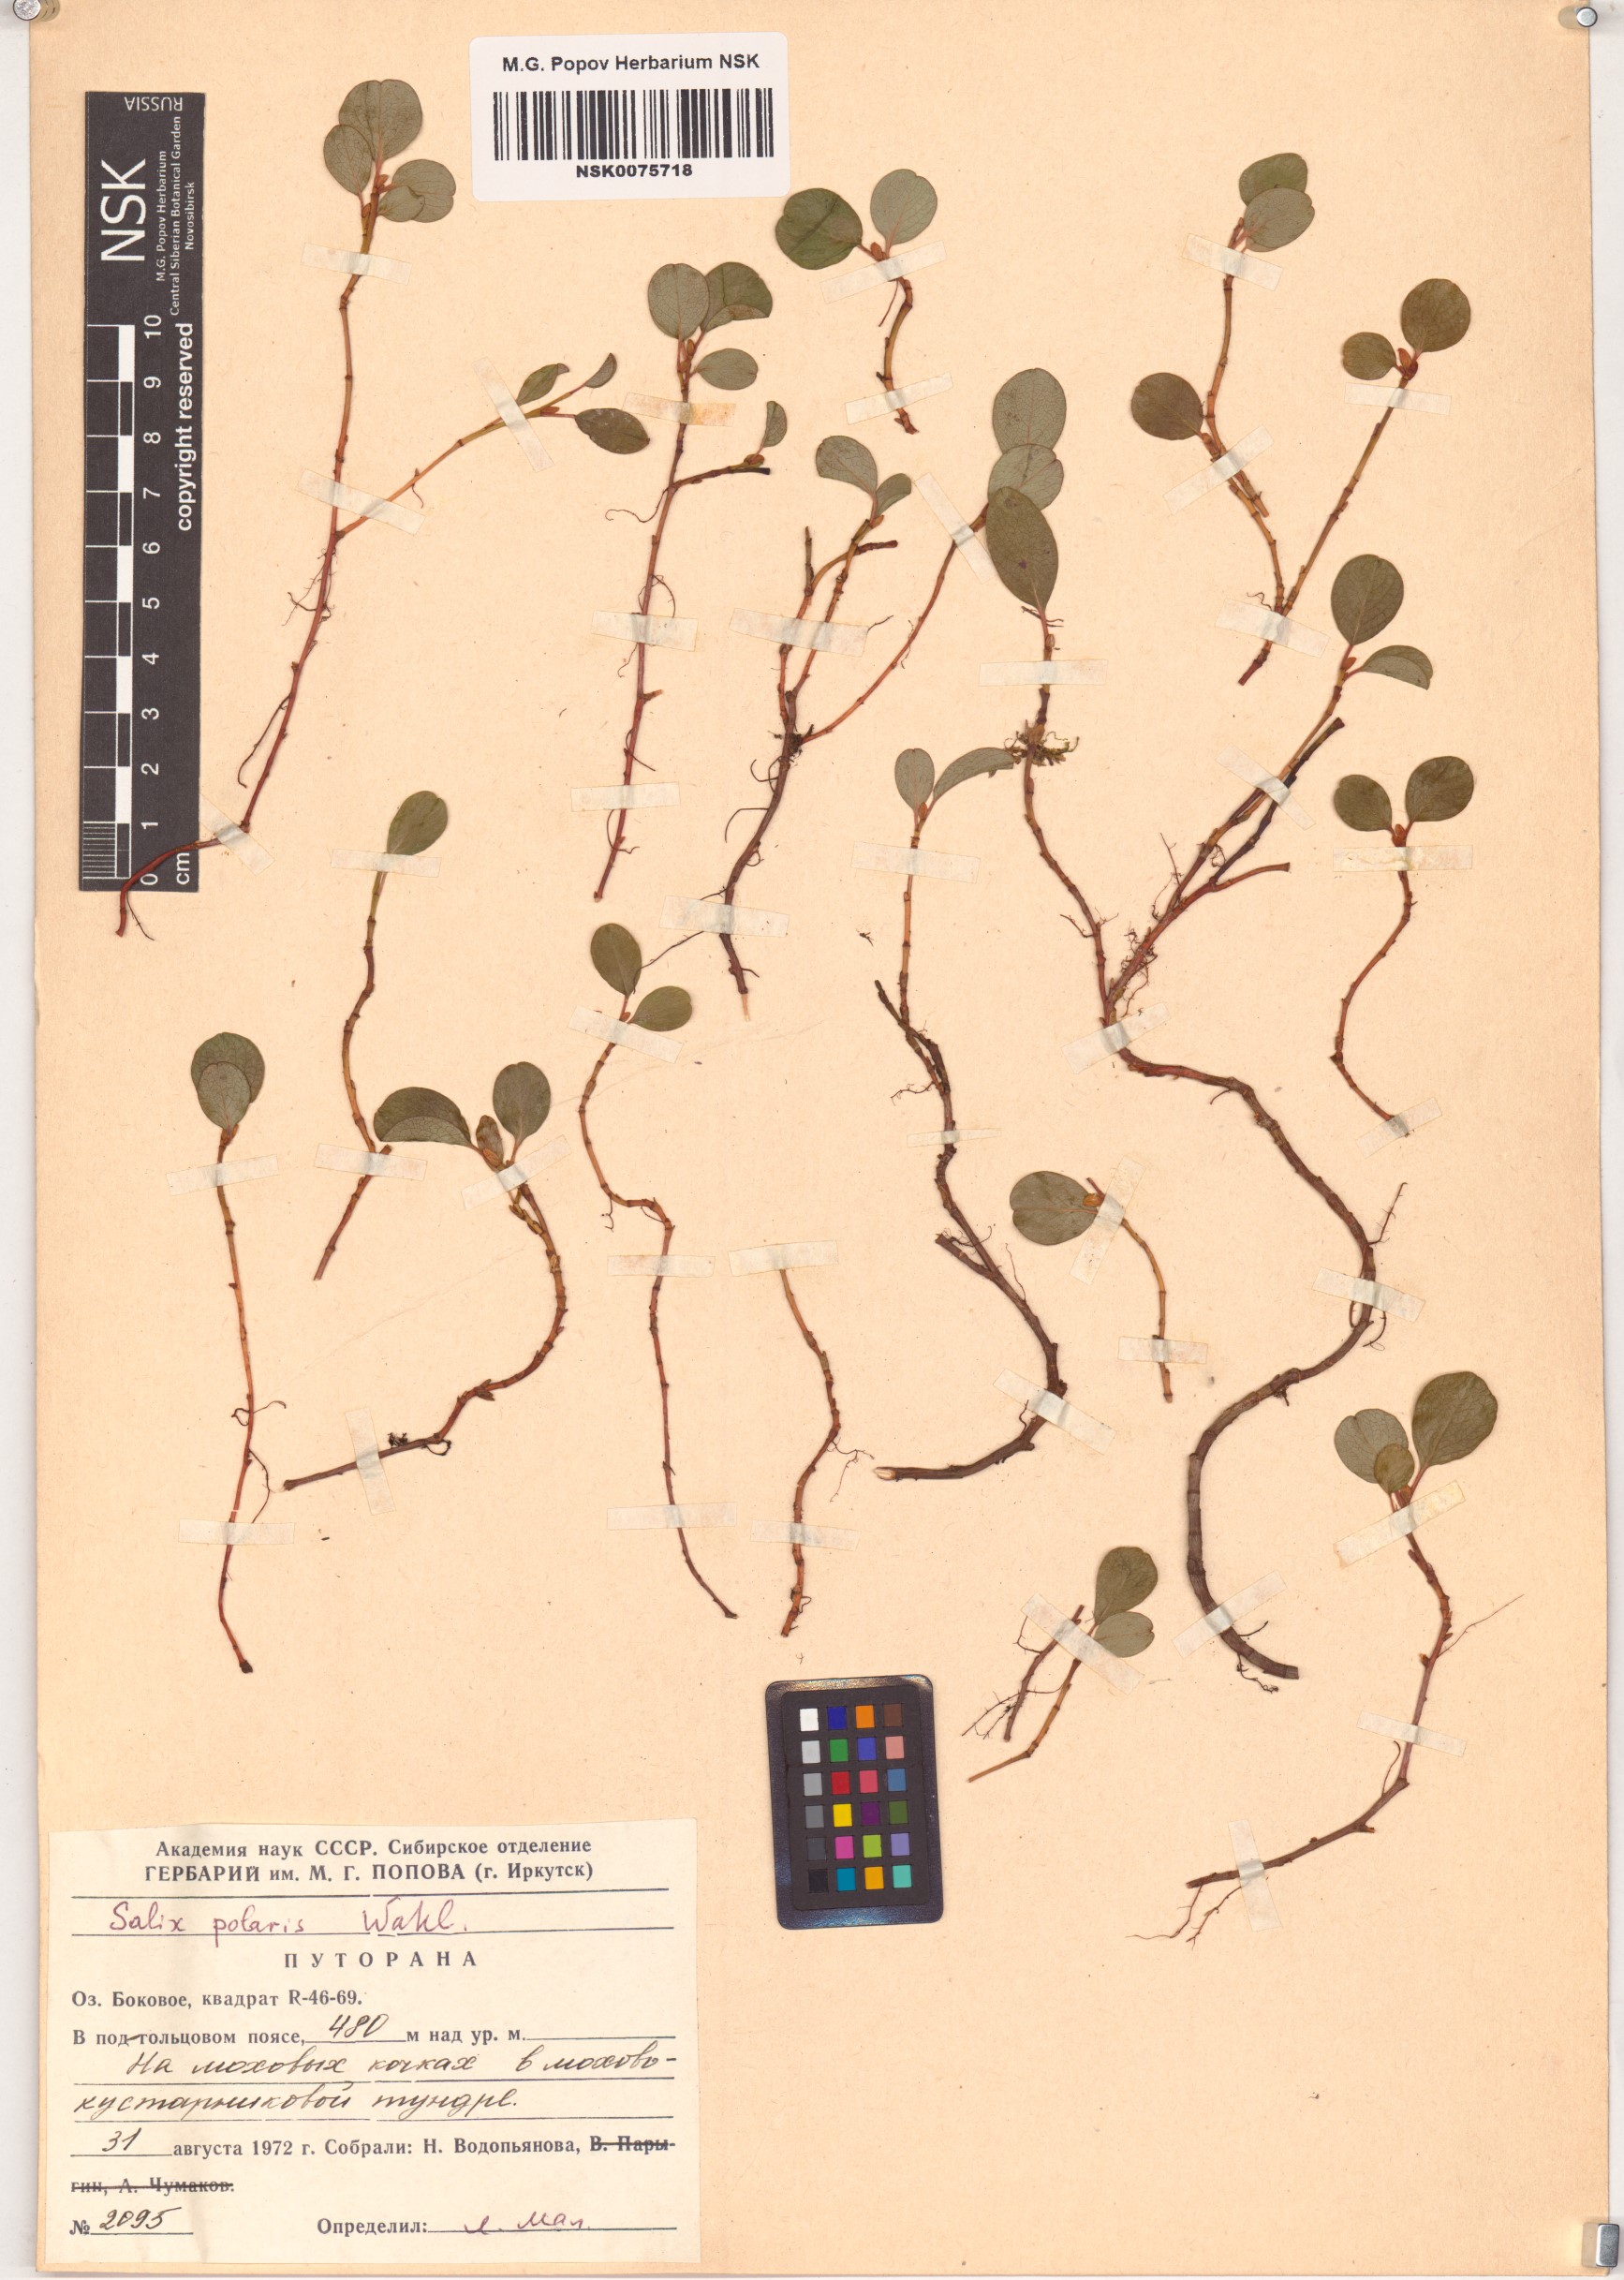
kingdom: Plantae
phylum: Tracheophyta
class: Magnoliopsida
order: Malpighiales
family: Salicaceae
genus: Salix
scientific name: Salix polaris
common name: Polar willow
